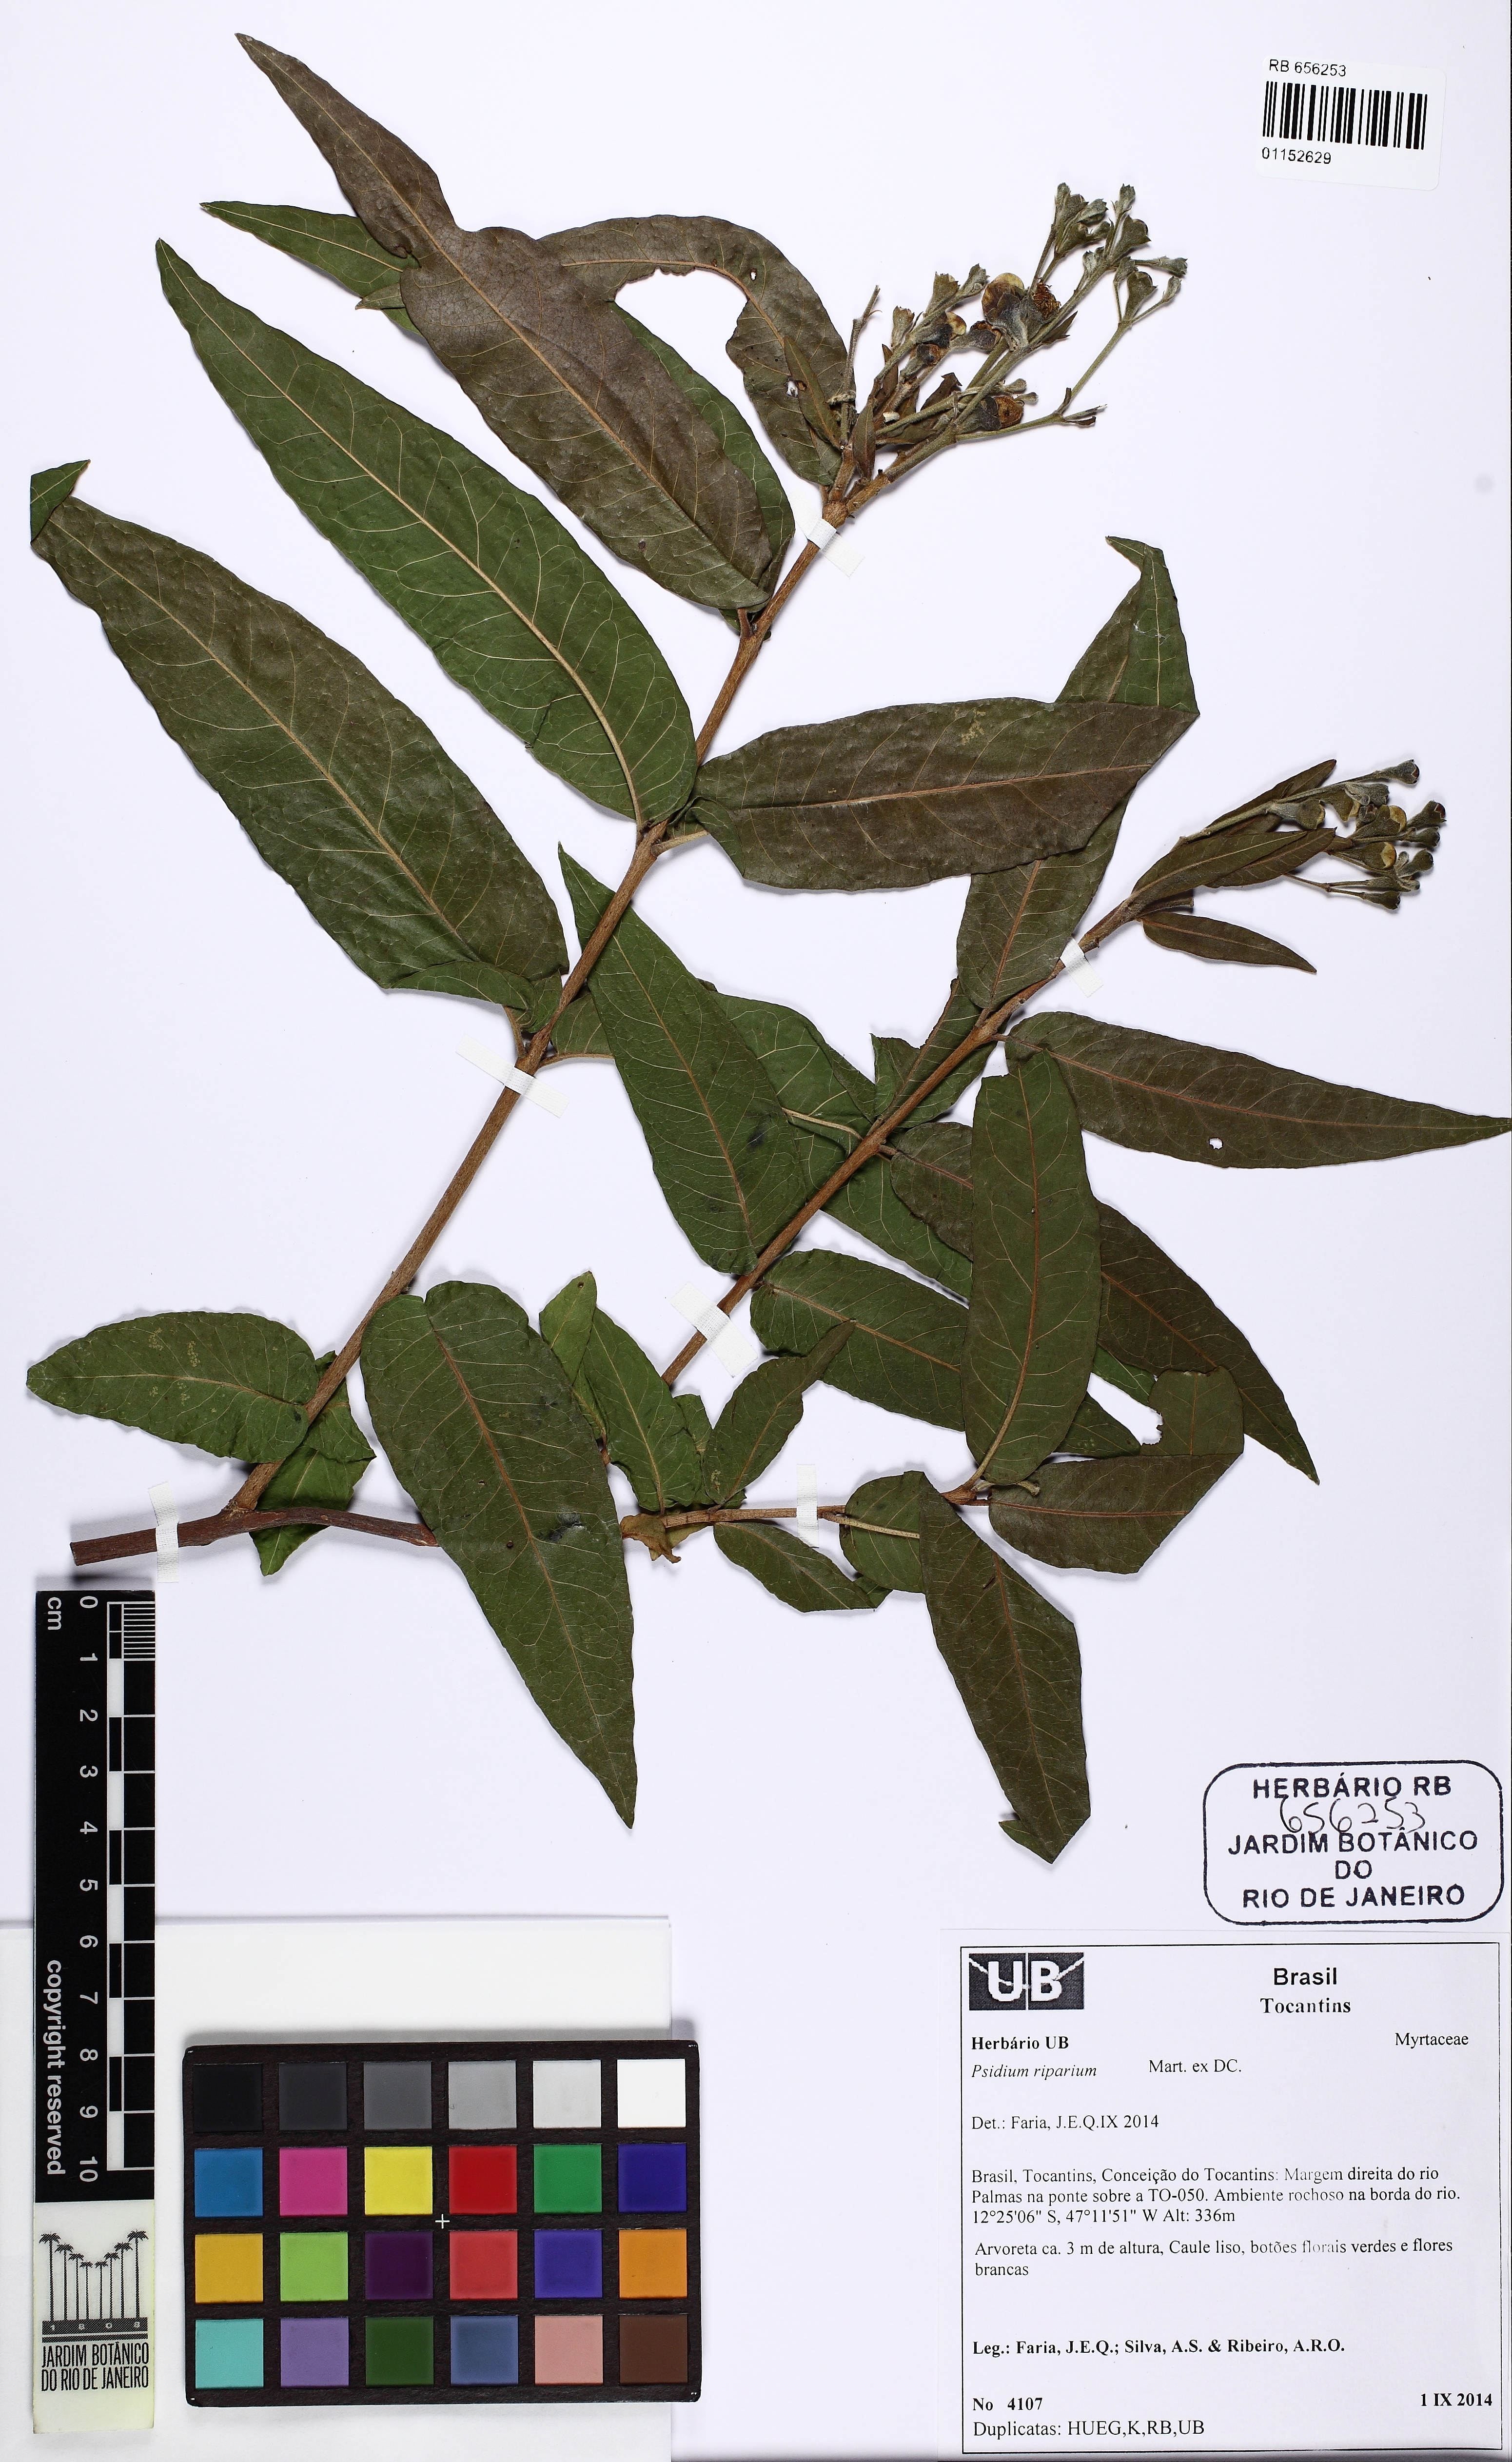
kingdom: Plantae
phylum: Tracheophyta
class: Magnoliopsida
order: Myrtales
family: Myrtaceae
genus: Psidium
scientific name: Psidium riparium
